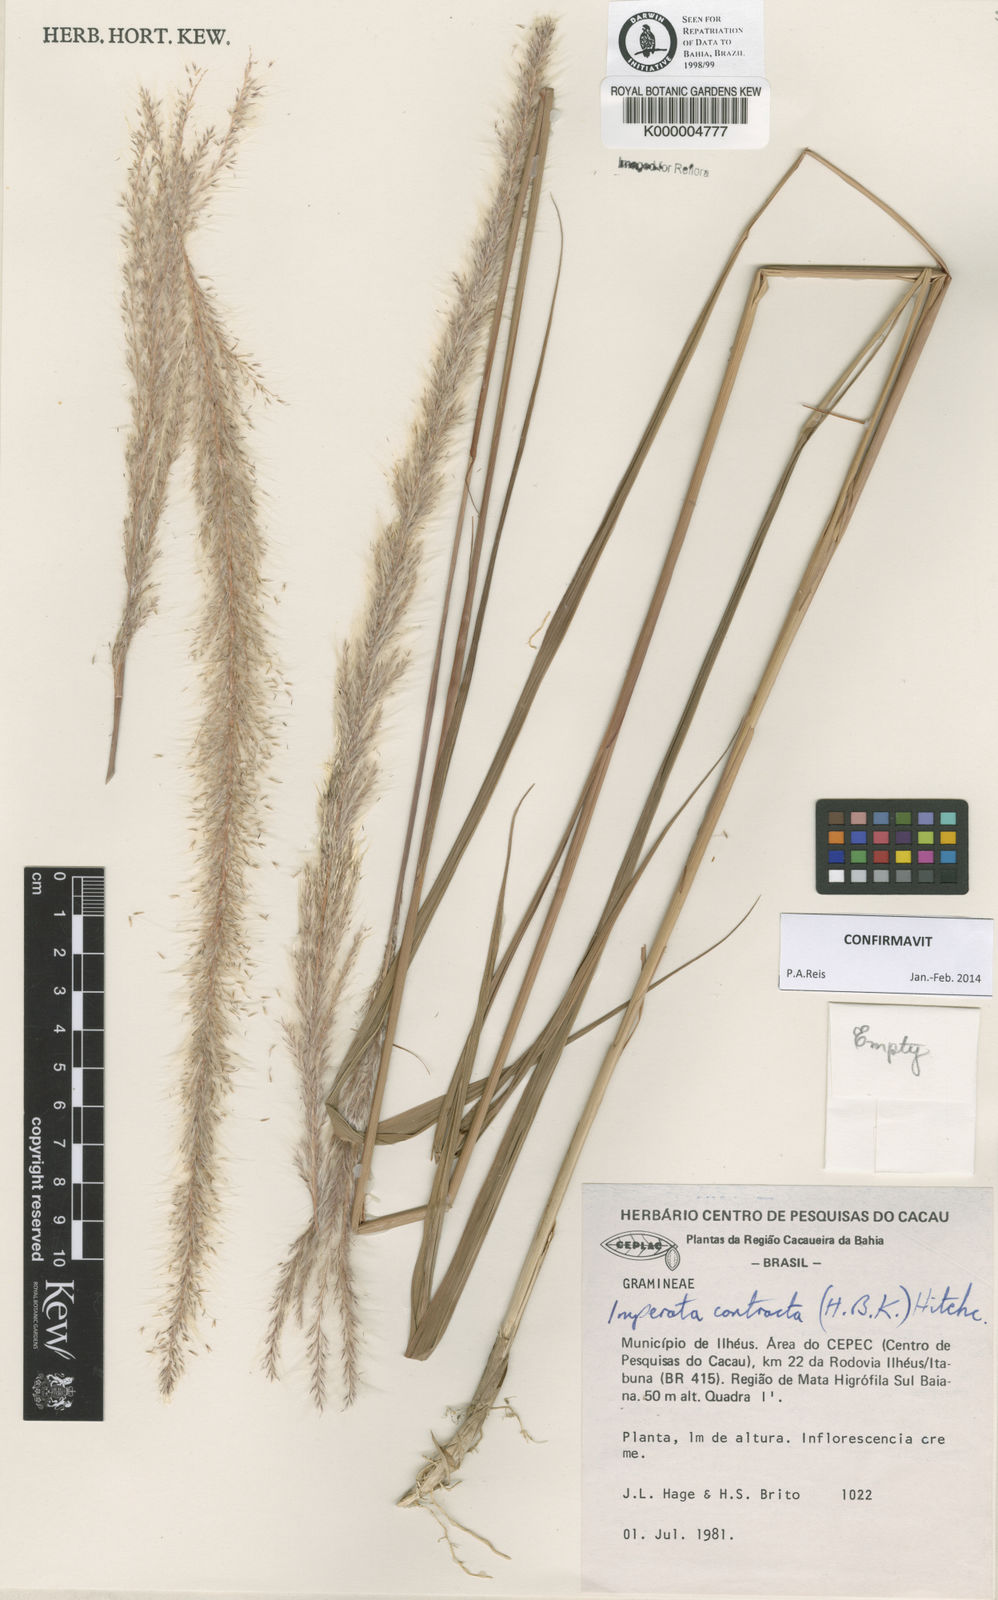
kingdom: Plantae
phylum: Tracheophyta
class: Liliopsida
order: Poales
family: Poaceae
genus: Imperata
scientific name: Imperata contracta
